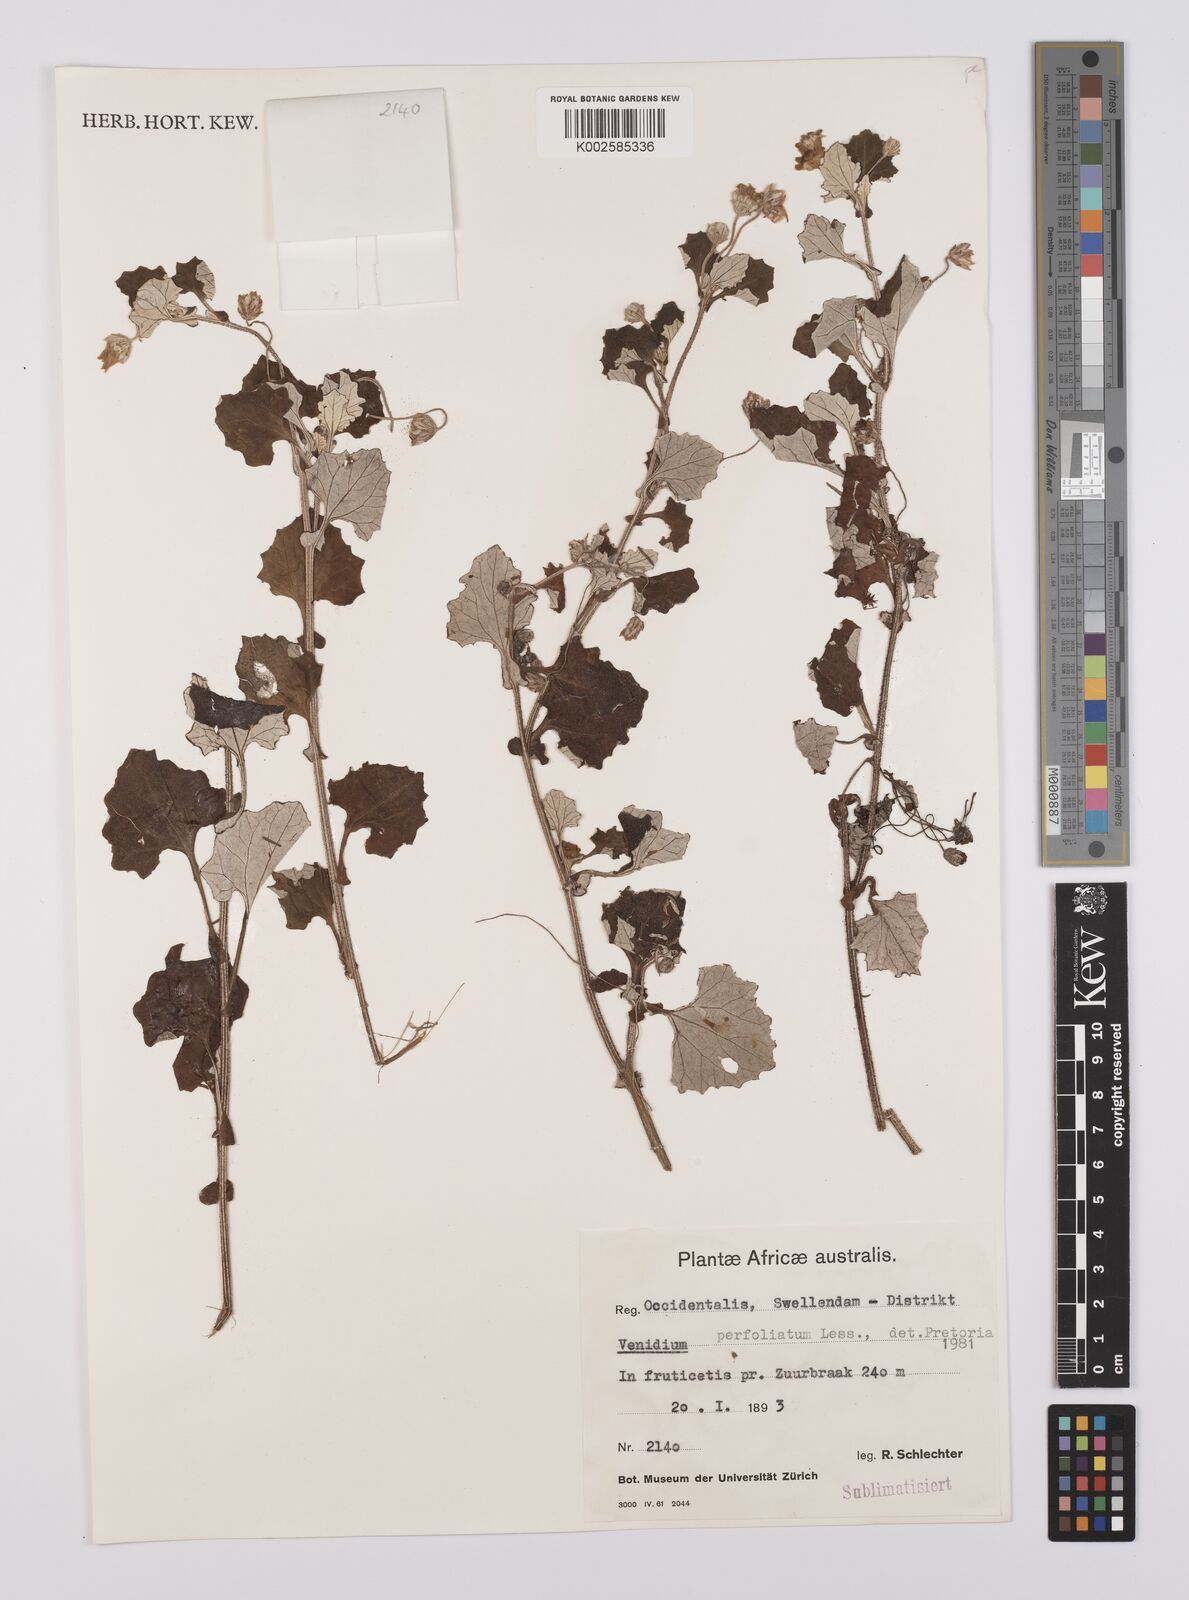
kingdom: Plantae
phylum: Tracheophyta
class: Magnoliopsida
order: Asterales
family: Asteraceae
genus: Arctotis
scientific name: Arctotis perfoliata
